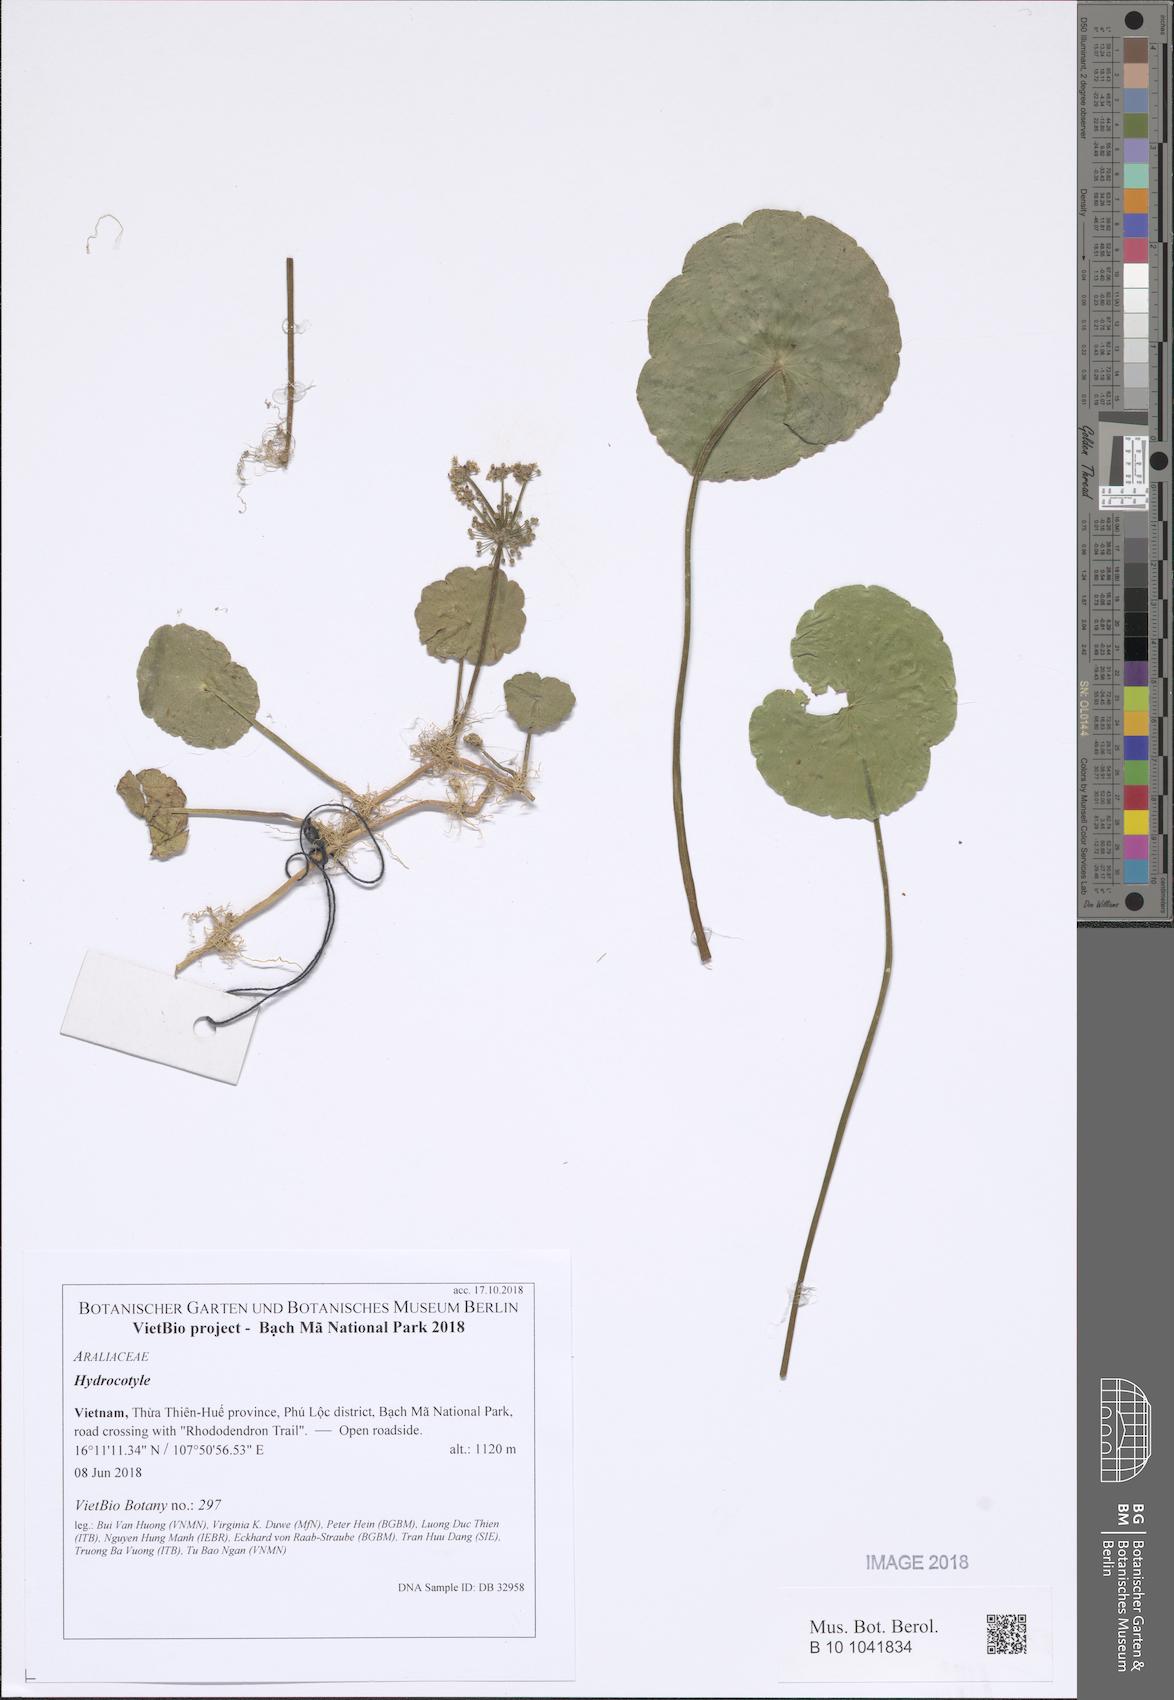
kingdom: Plantae
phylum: Tracheophyta
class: Magnoliopsida
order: Apiales
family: Araliaceae
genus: Hydrocotyle
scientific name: Hydrocotyle
